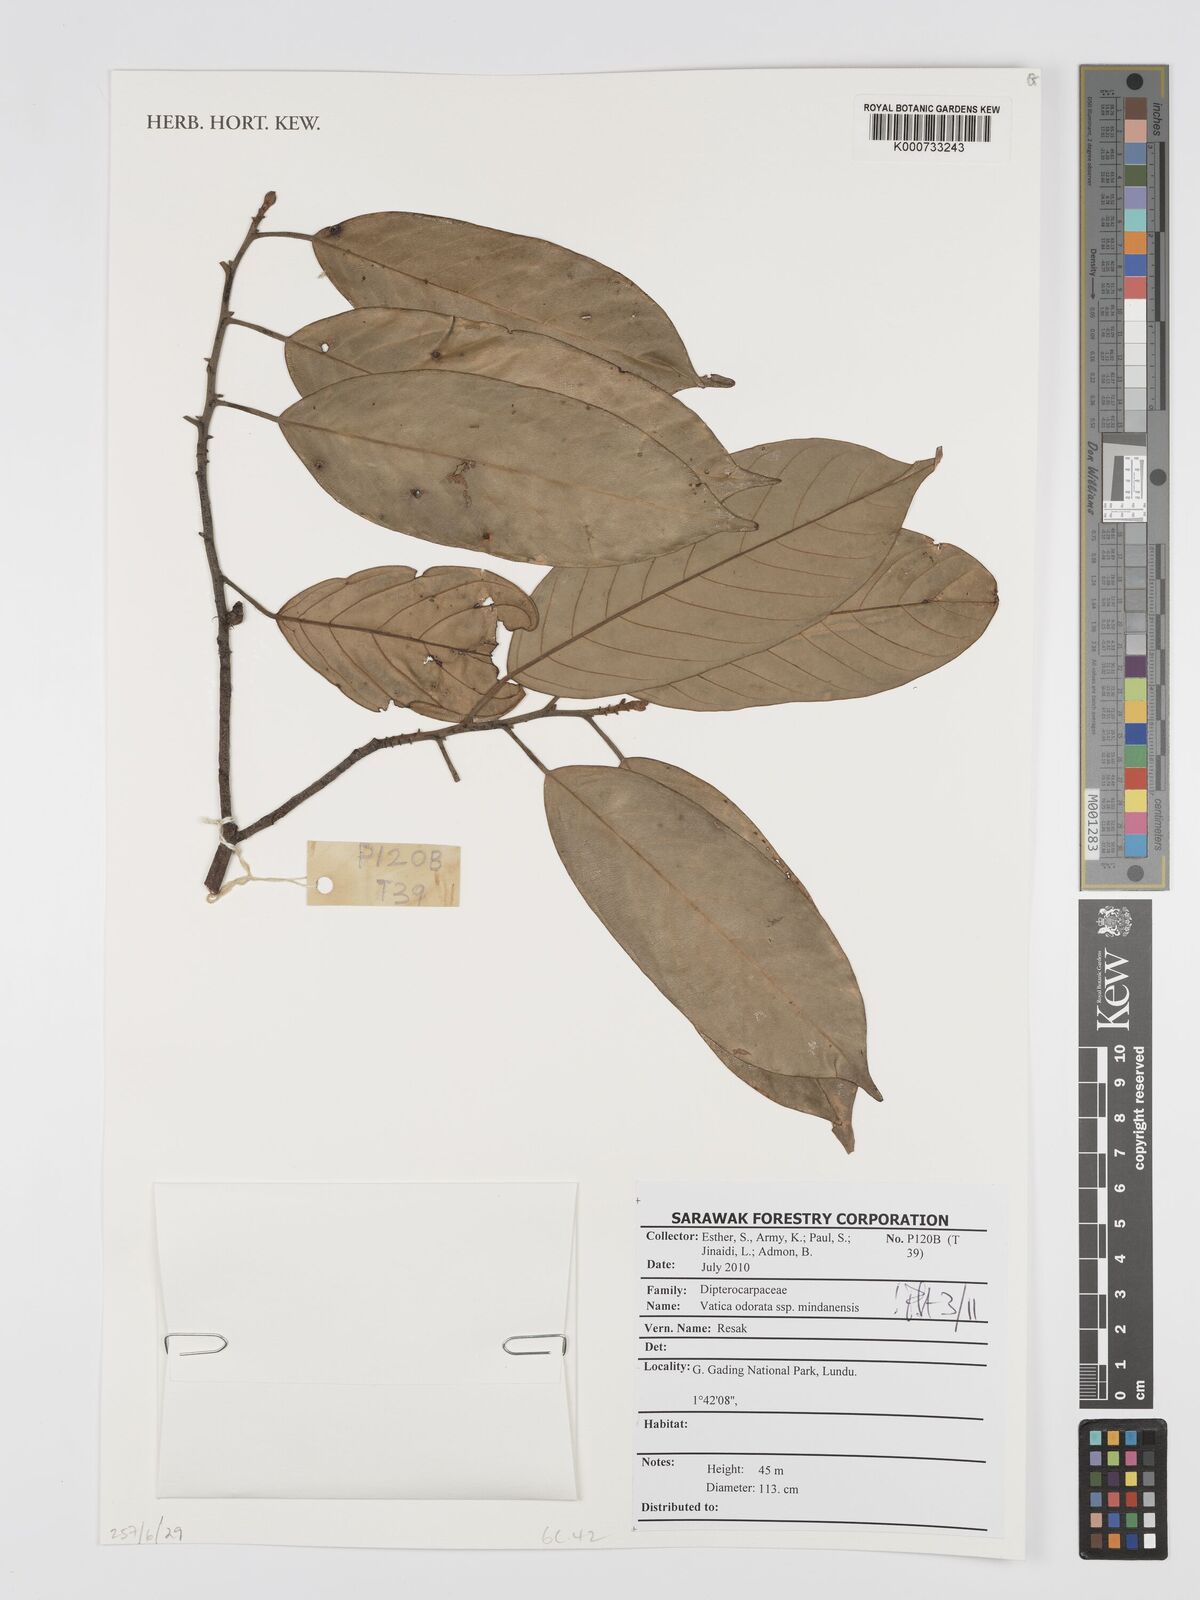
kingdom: Plantae
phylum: Tracheophyta
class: Magnoliopsida
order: Malvales
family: Dipterocarpaceae
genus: Vatica
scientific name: Vatica odorata
